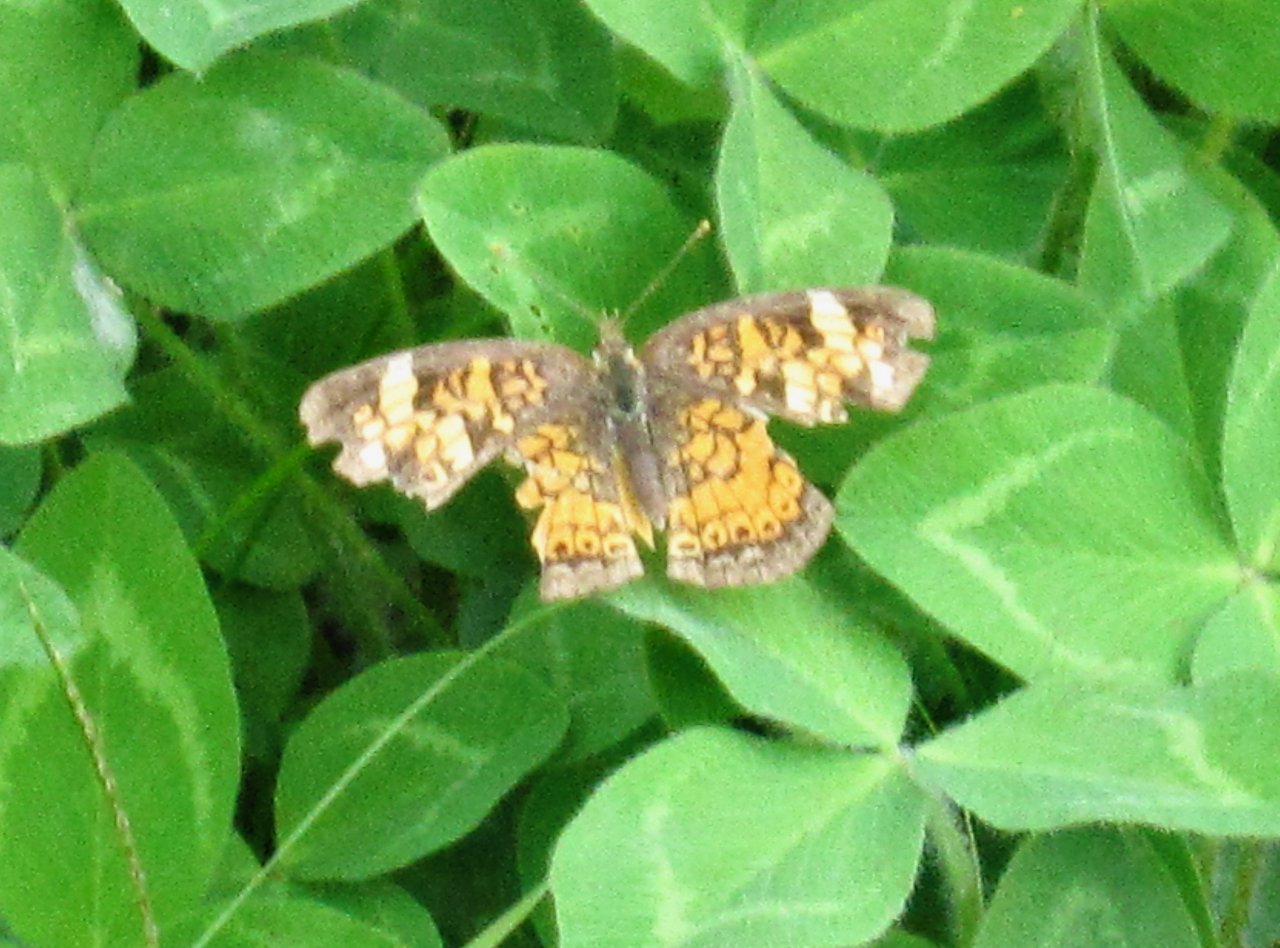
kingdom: Animalia
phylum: Arthropoda
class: Insecta
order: Lepidoptera
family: Nymphalidae
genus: Phyciodes
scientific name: Phyciodes tharos
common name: Pearl Crescent
